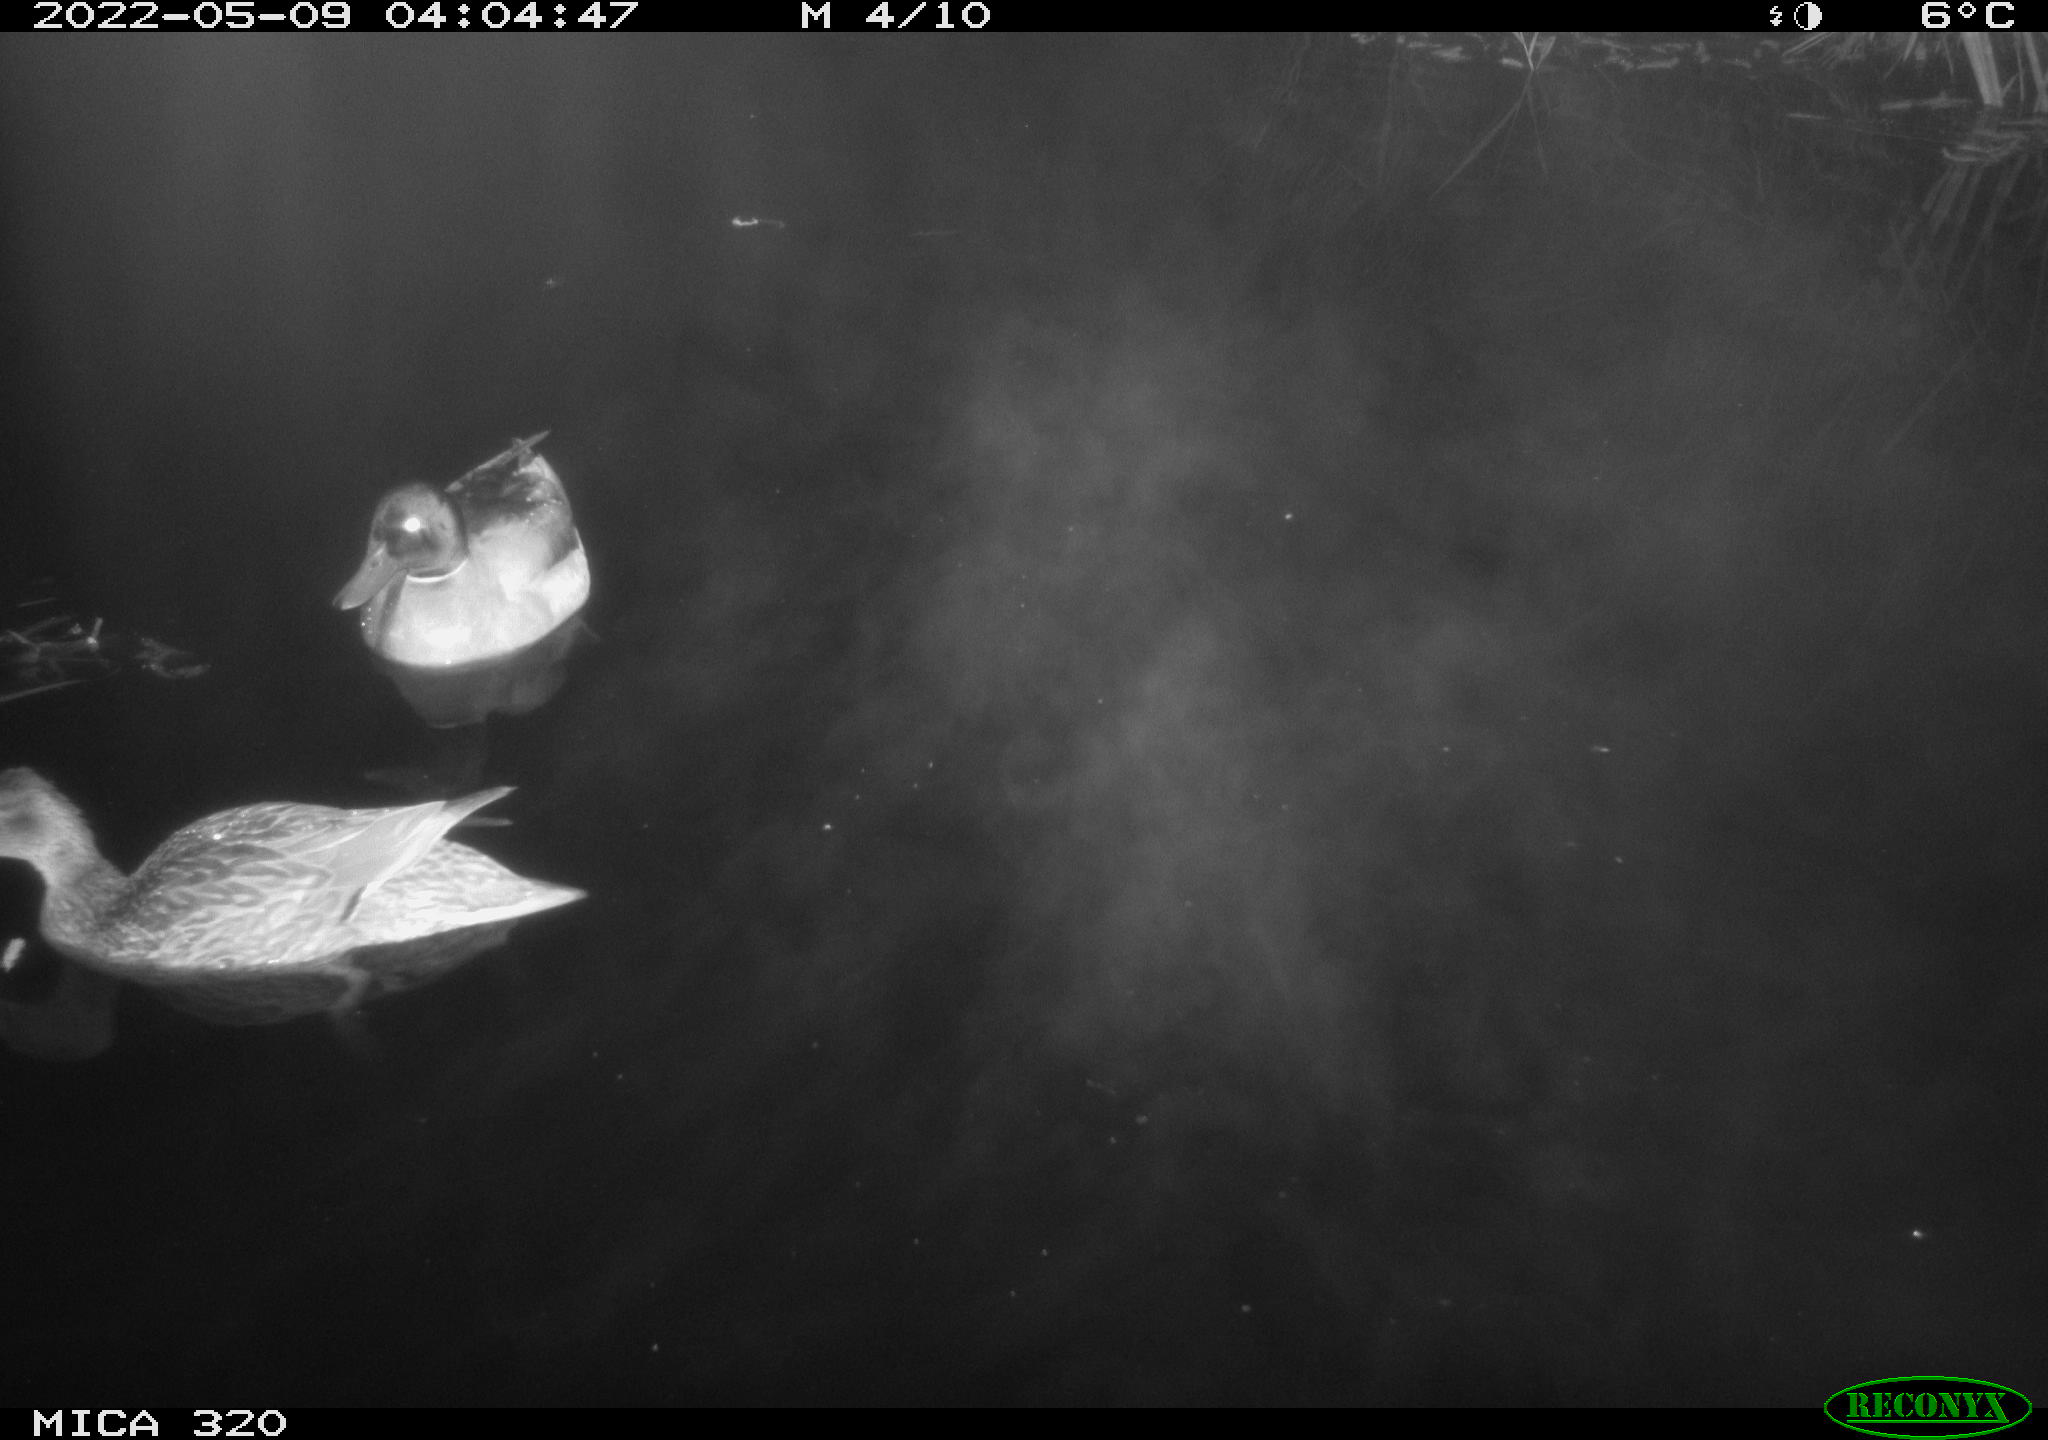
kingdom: Animalia
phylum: Chordata
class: Aves
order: Anseriformes
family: Anatidae
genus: Mareca
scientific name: Mareca strepera
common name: Gadwall
